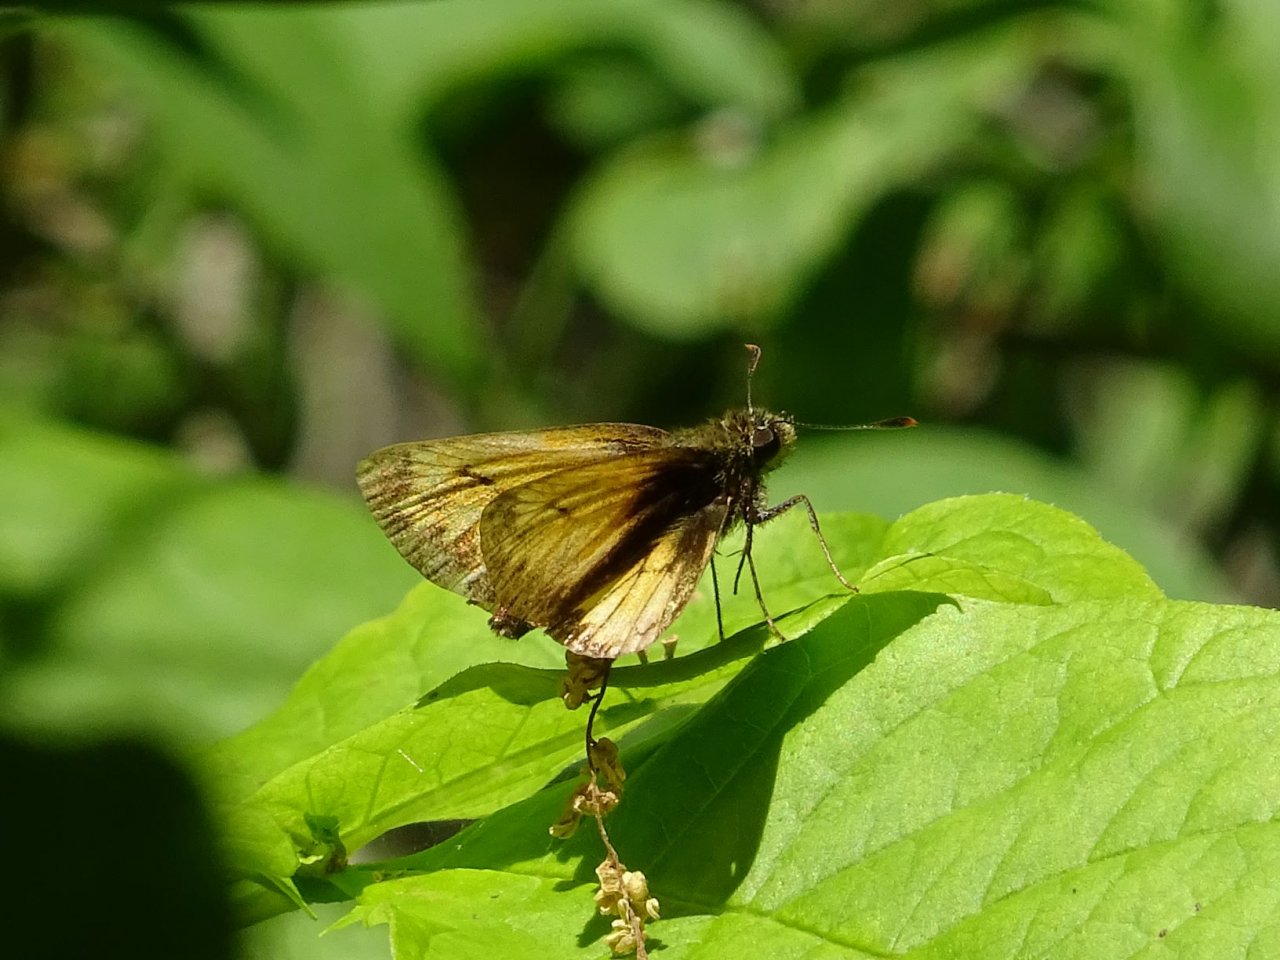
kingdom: Animalia
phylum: Arthropoda
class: Insecta
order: Lepidoptera
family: Hesperiidae
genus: Lon
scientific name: Lon hobomok
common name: Hobomok Skipper
